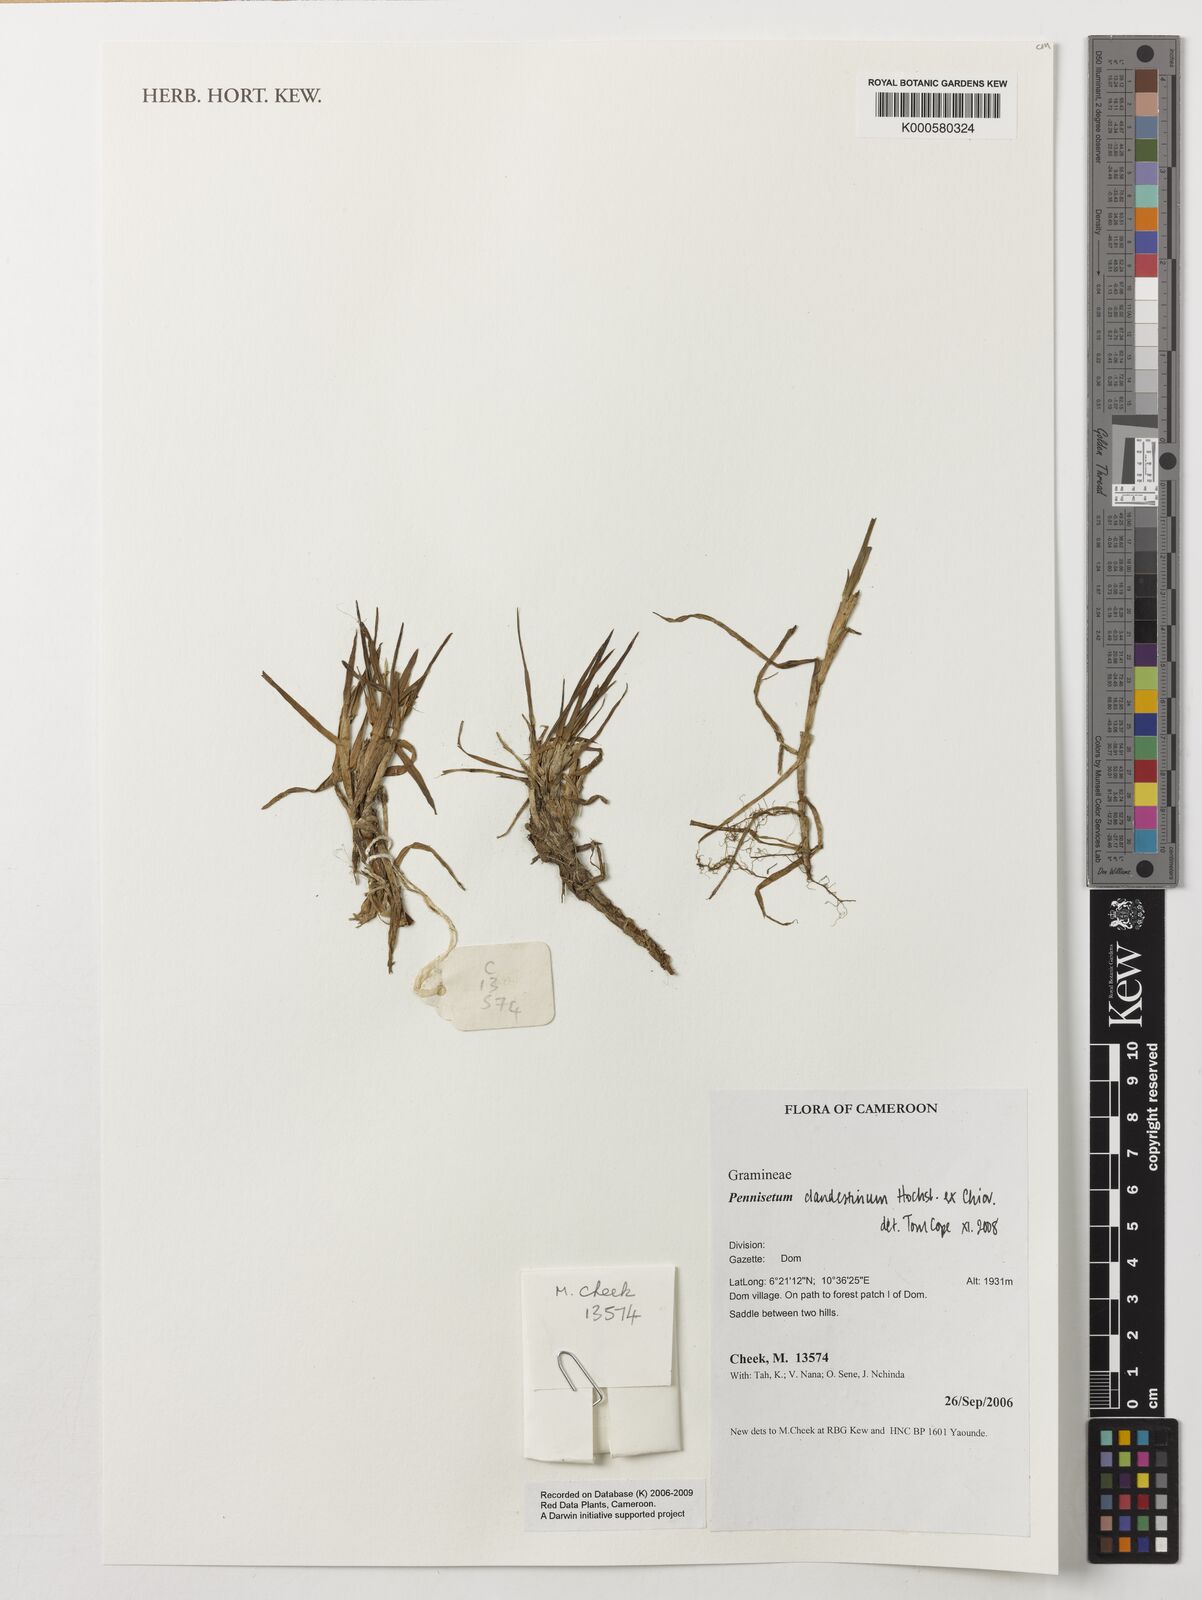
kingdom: Plantae
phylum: Tracheophyta
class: Liliopsida
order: Poales
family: Poaceae
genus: Cenchrus
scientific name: Cenchrus clandestinus
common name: Kikuyugrass
